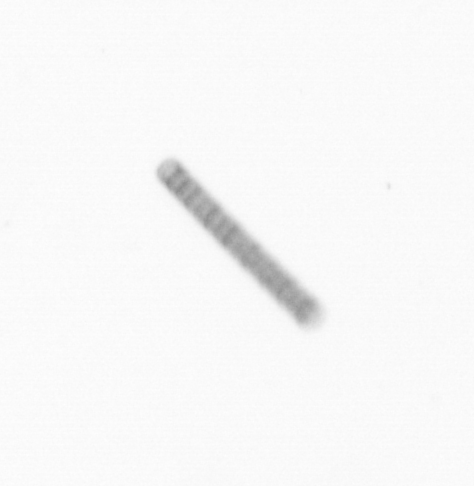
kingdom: Chromista
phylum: Ochrophyta
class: Bacillariophyceae
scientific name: Bacillariophyceae
